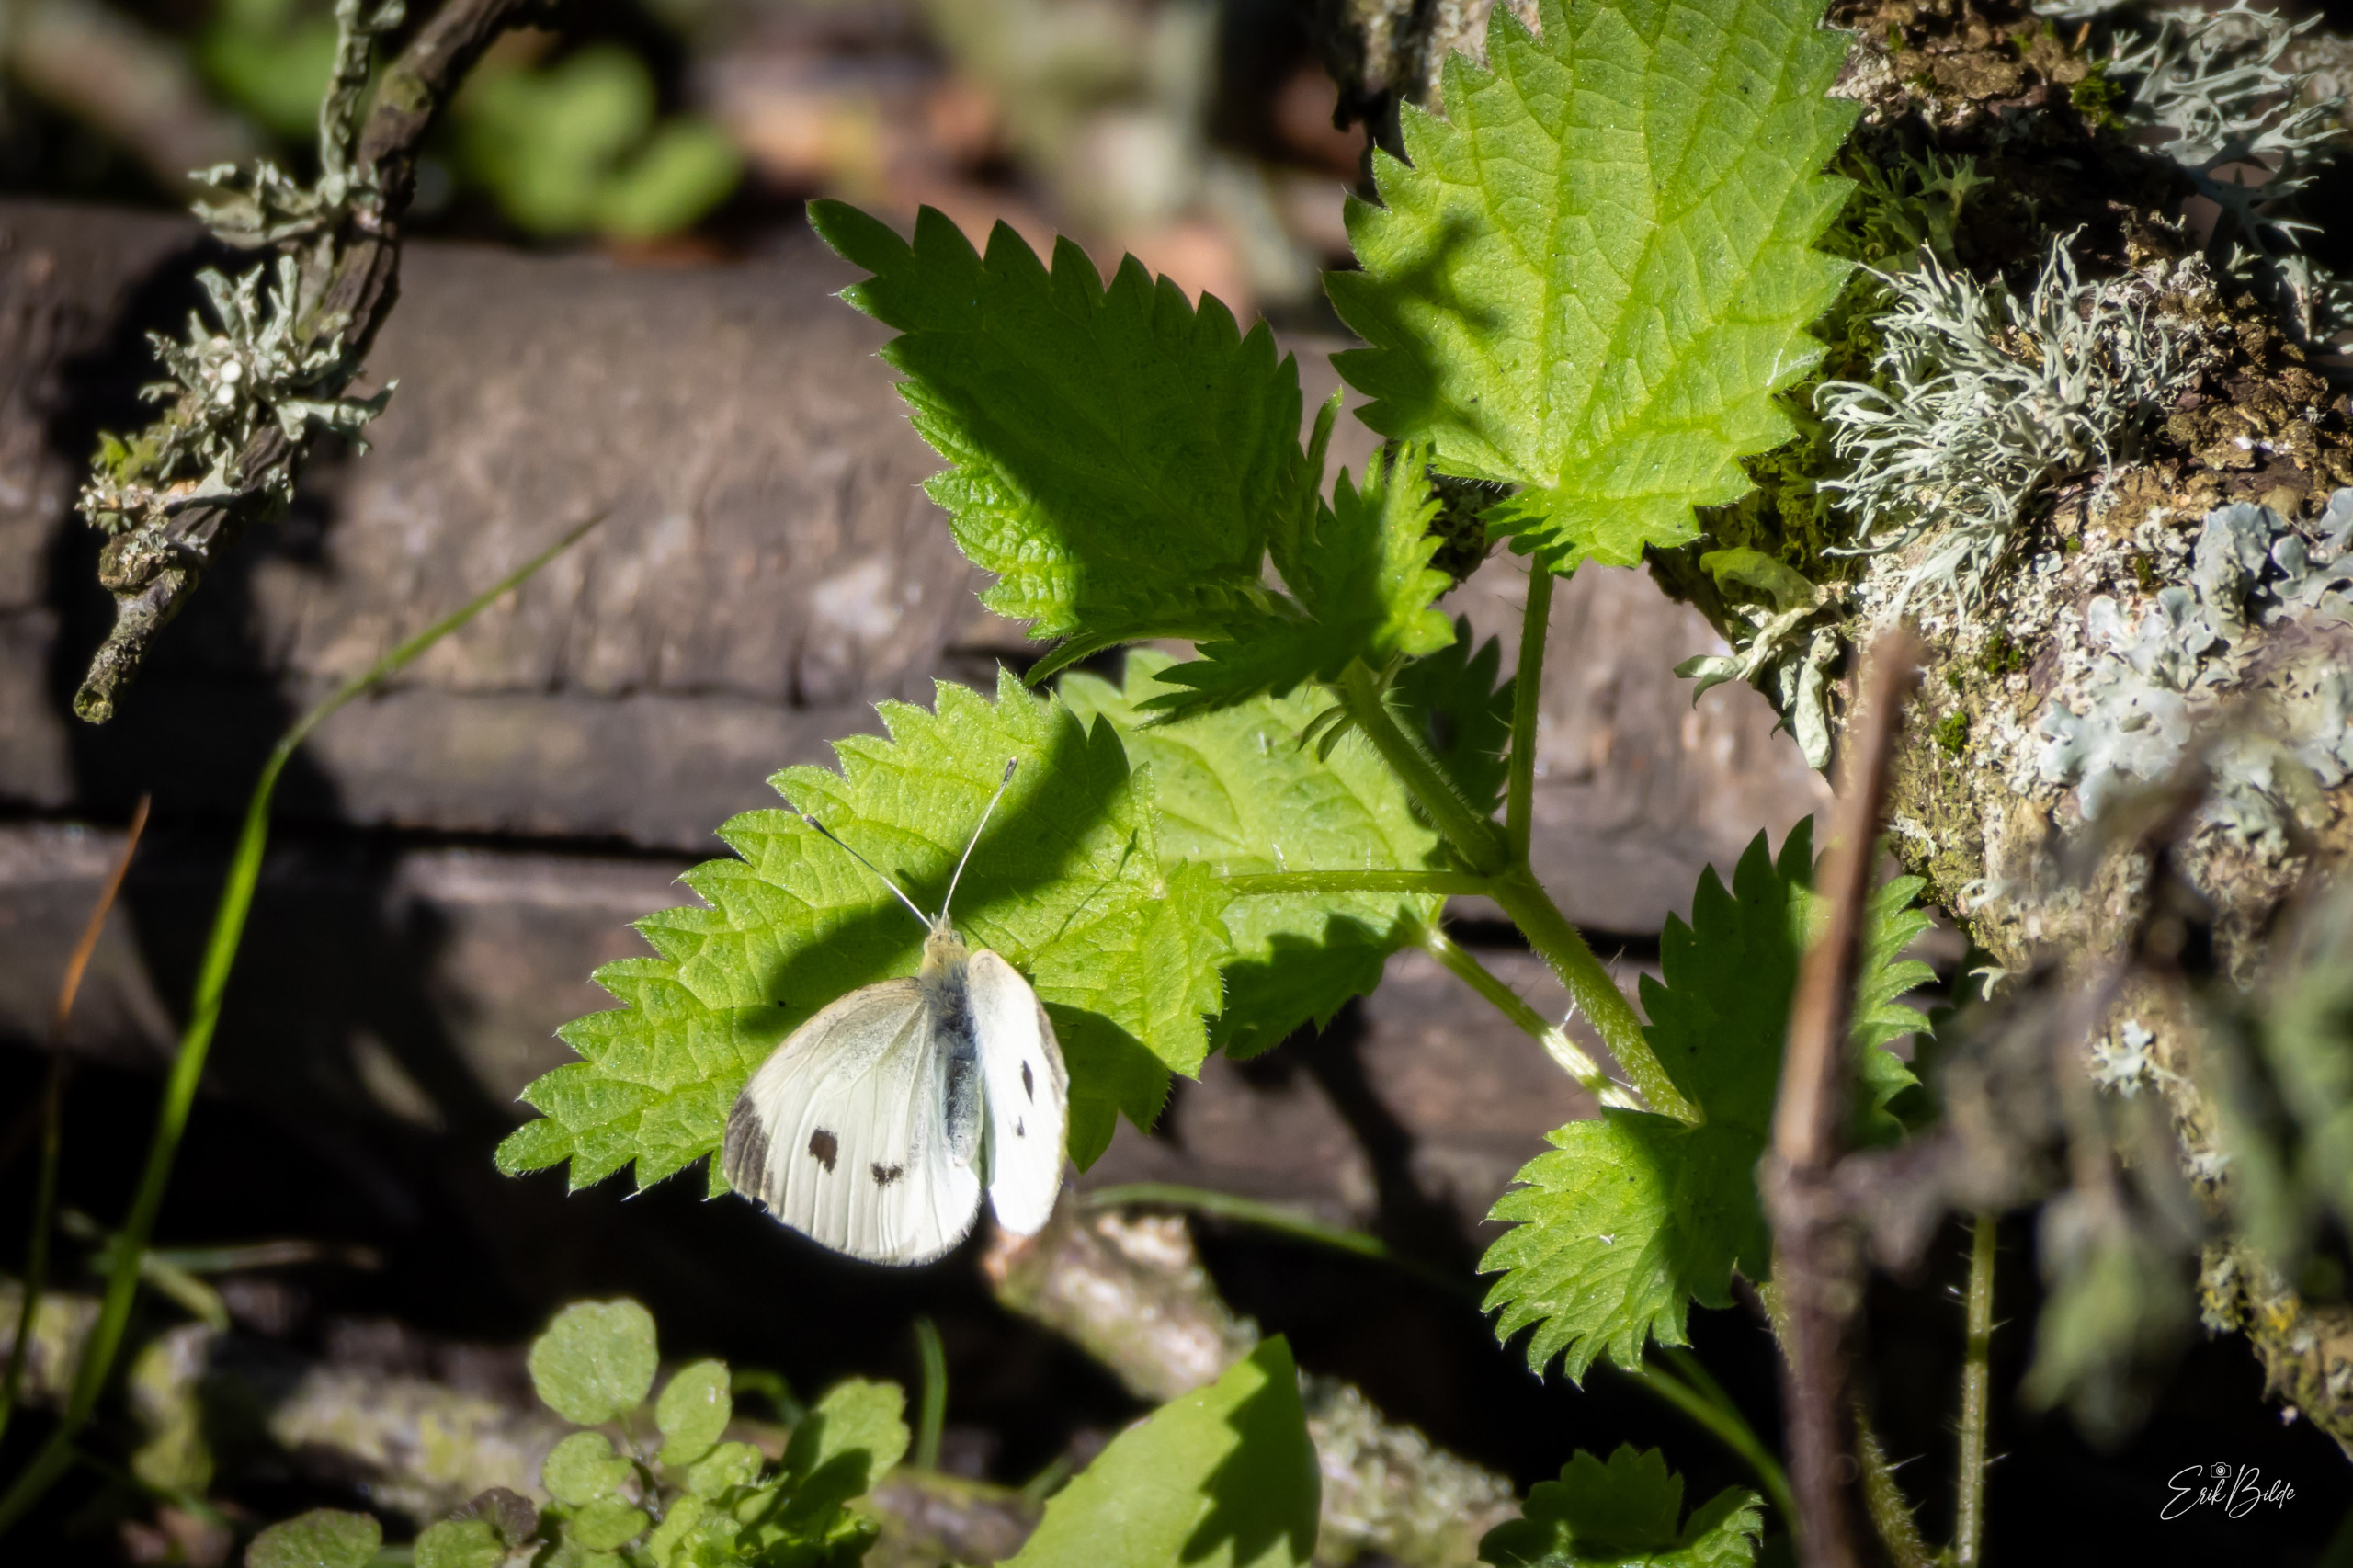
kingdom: Animalia
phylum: Arthropoda
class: Insecta
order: Lepidoptera
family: Pieridae
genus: Pieris
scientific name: Pieris rapae
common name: Lille kålsommerfugl
